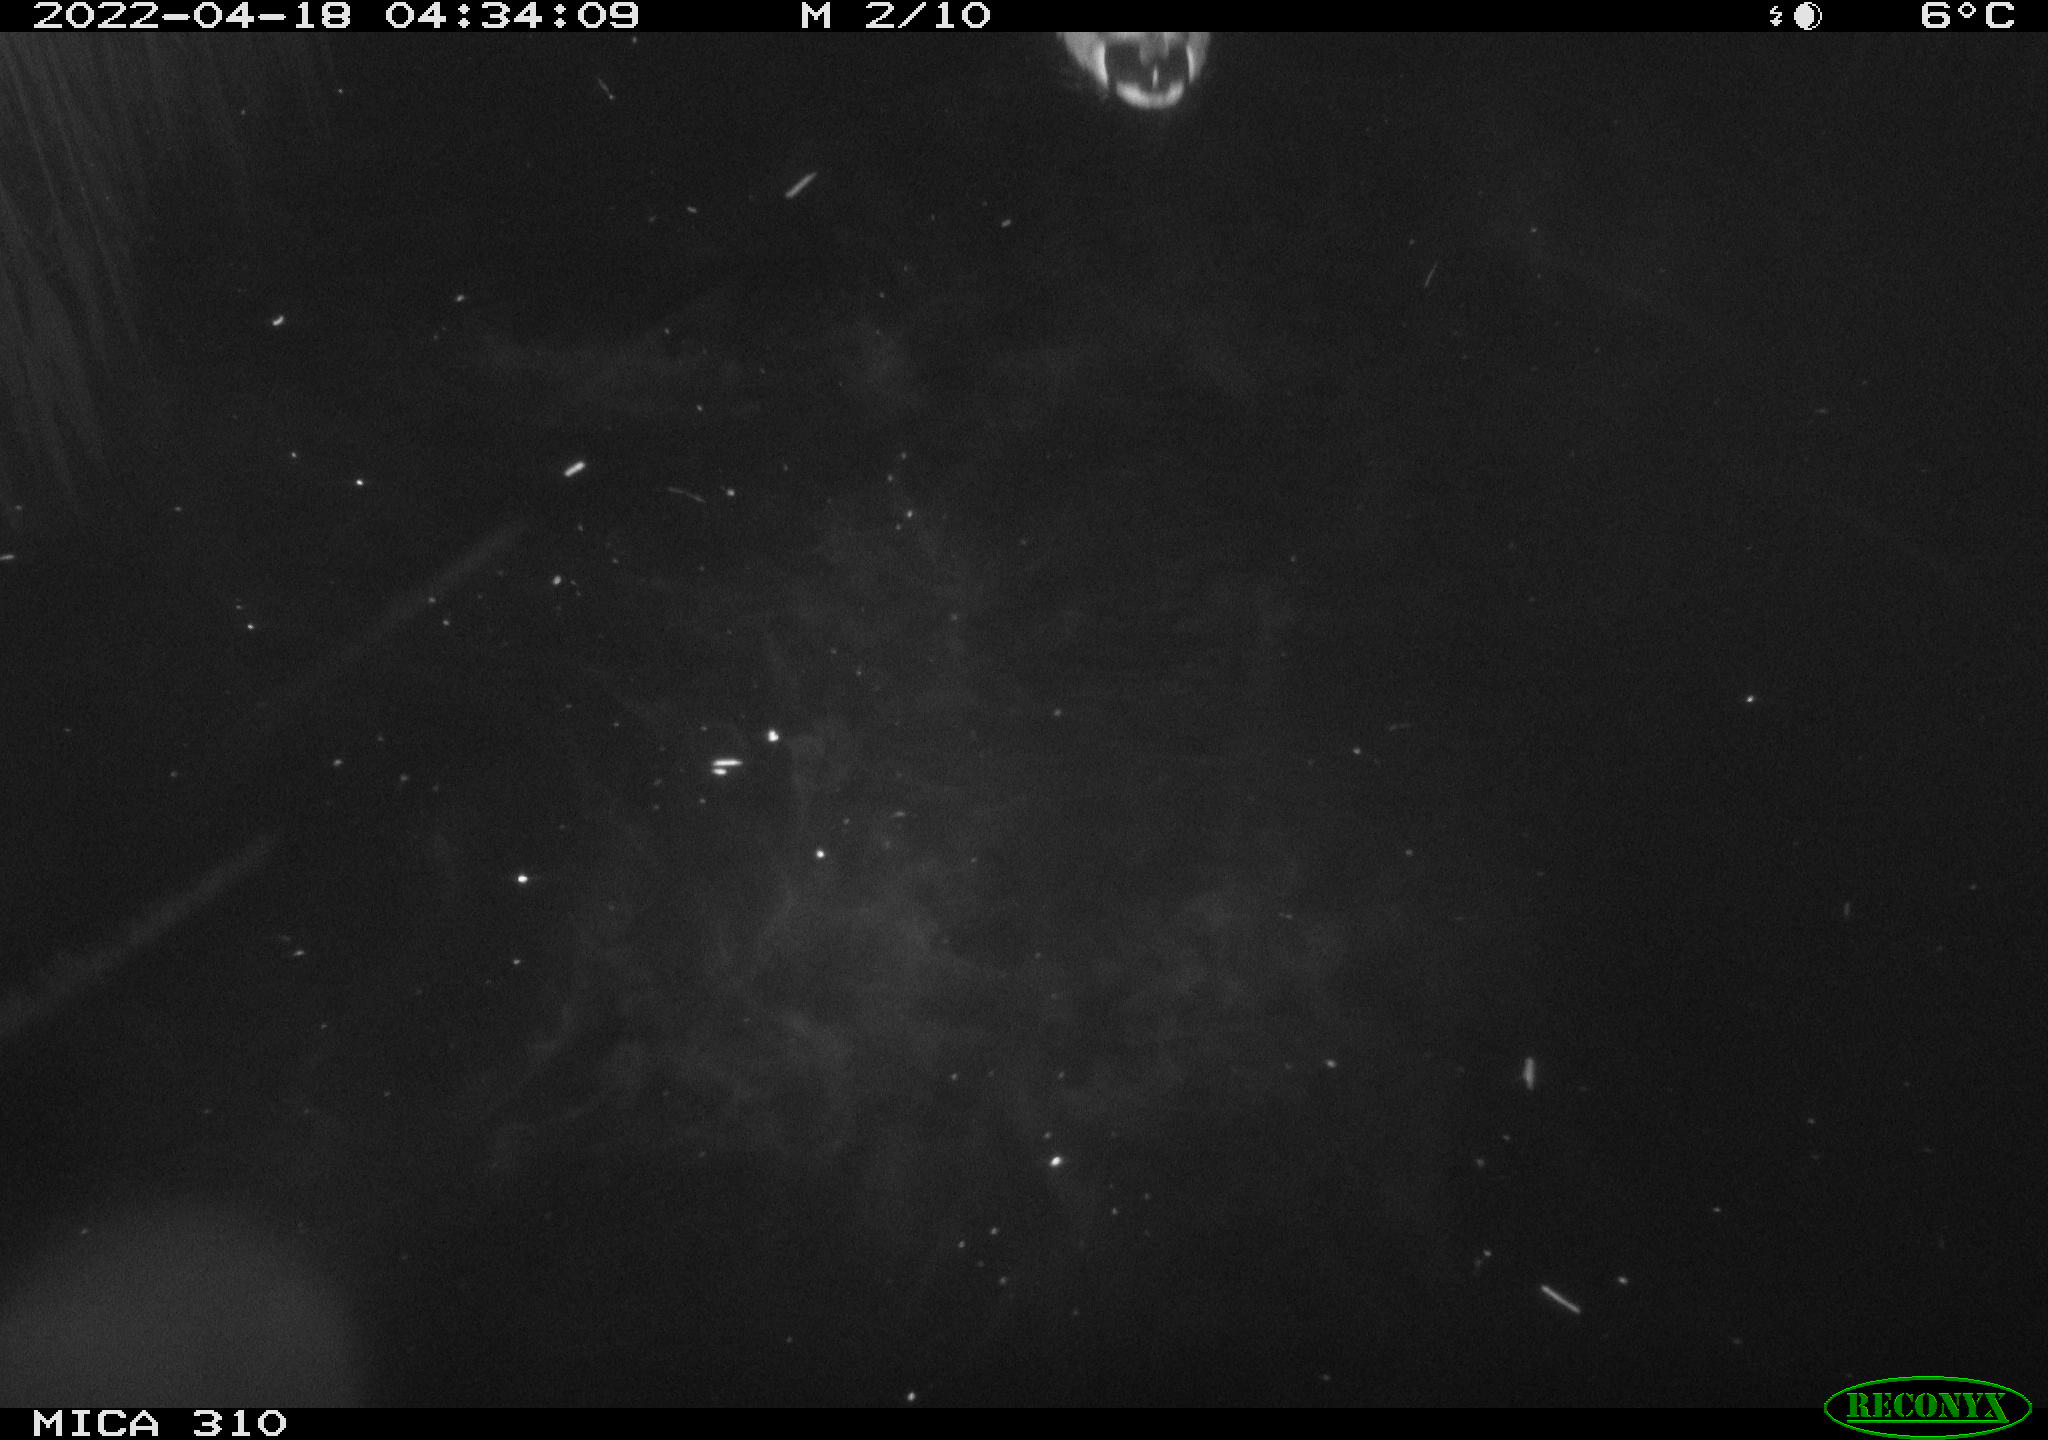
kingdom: Animalia
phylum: Chordata
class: Aves
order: Anseriformes
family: Anatidae
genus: Anas
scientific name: Anas platyrhynchos
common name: Mallard
